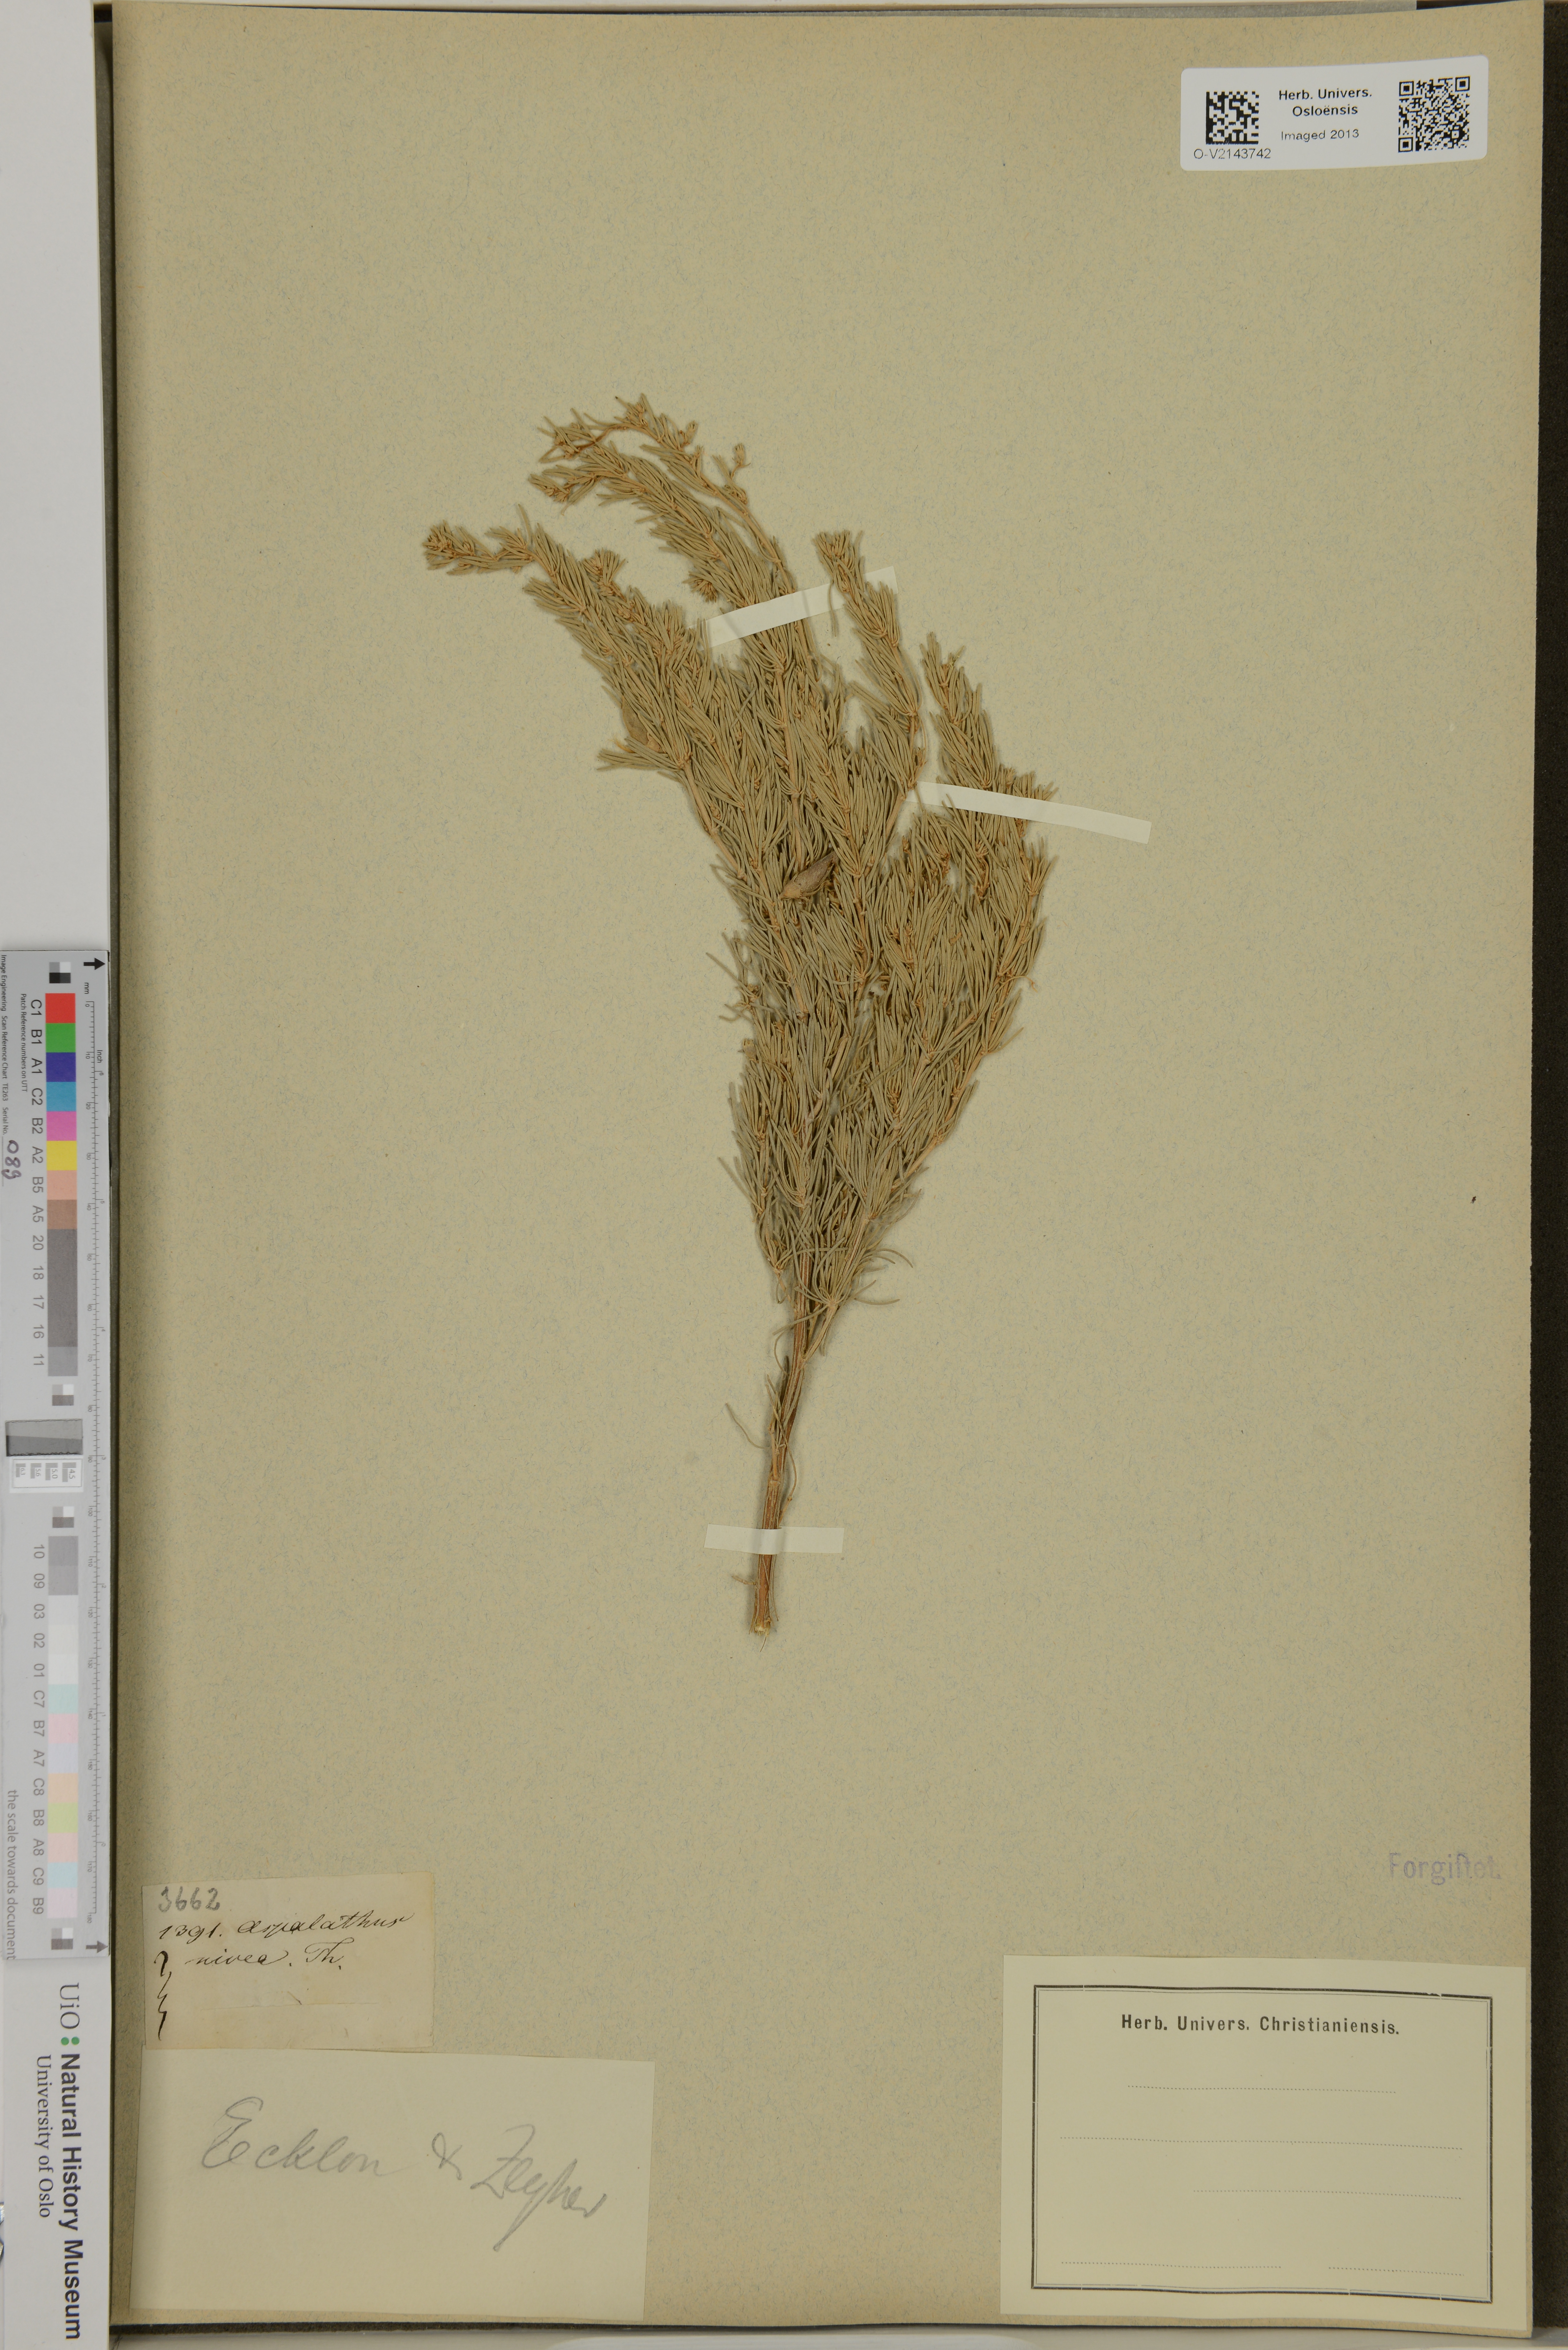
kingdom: Plantae
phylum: Tracheophyta
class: Magnoliopsida
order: Fabales
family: Fabaceae
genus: Aspalathus
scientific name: Aspalathus nivea
